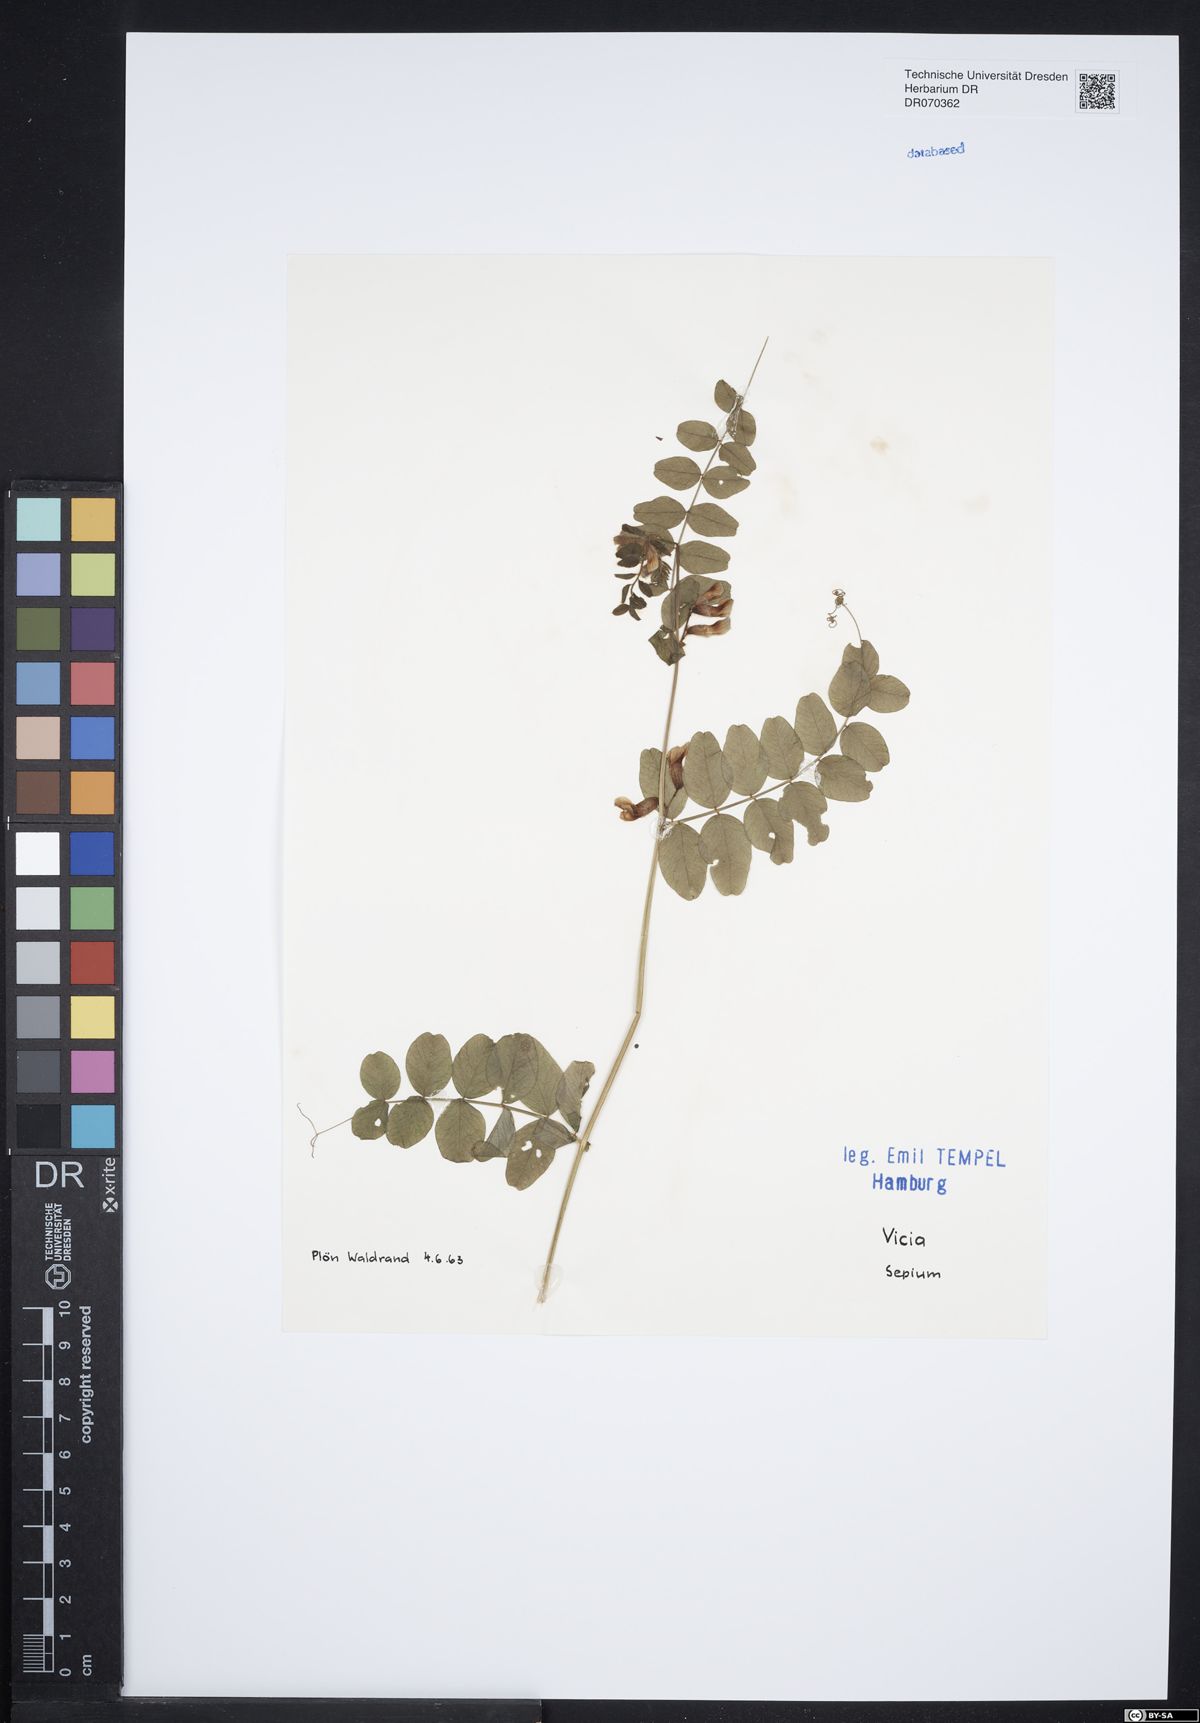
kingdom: Plantae
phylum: Tracheophyta
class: Magnoliopsida
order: Fabales
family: Fabaceae
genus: Vicia
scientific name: Vicia sepium
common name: Bush vetch
